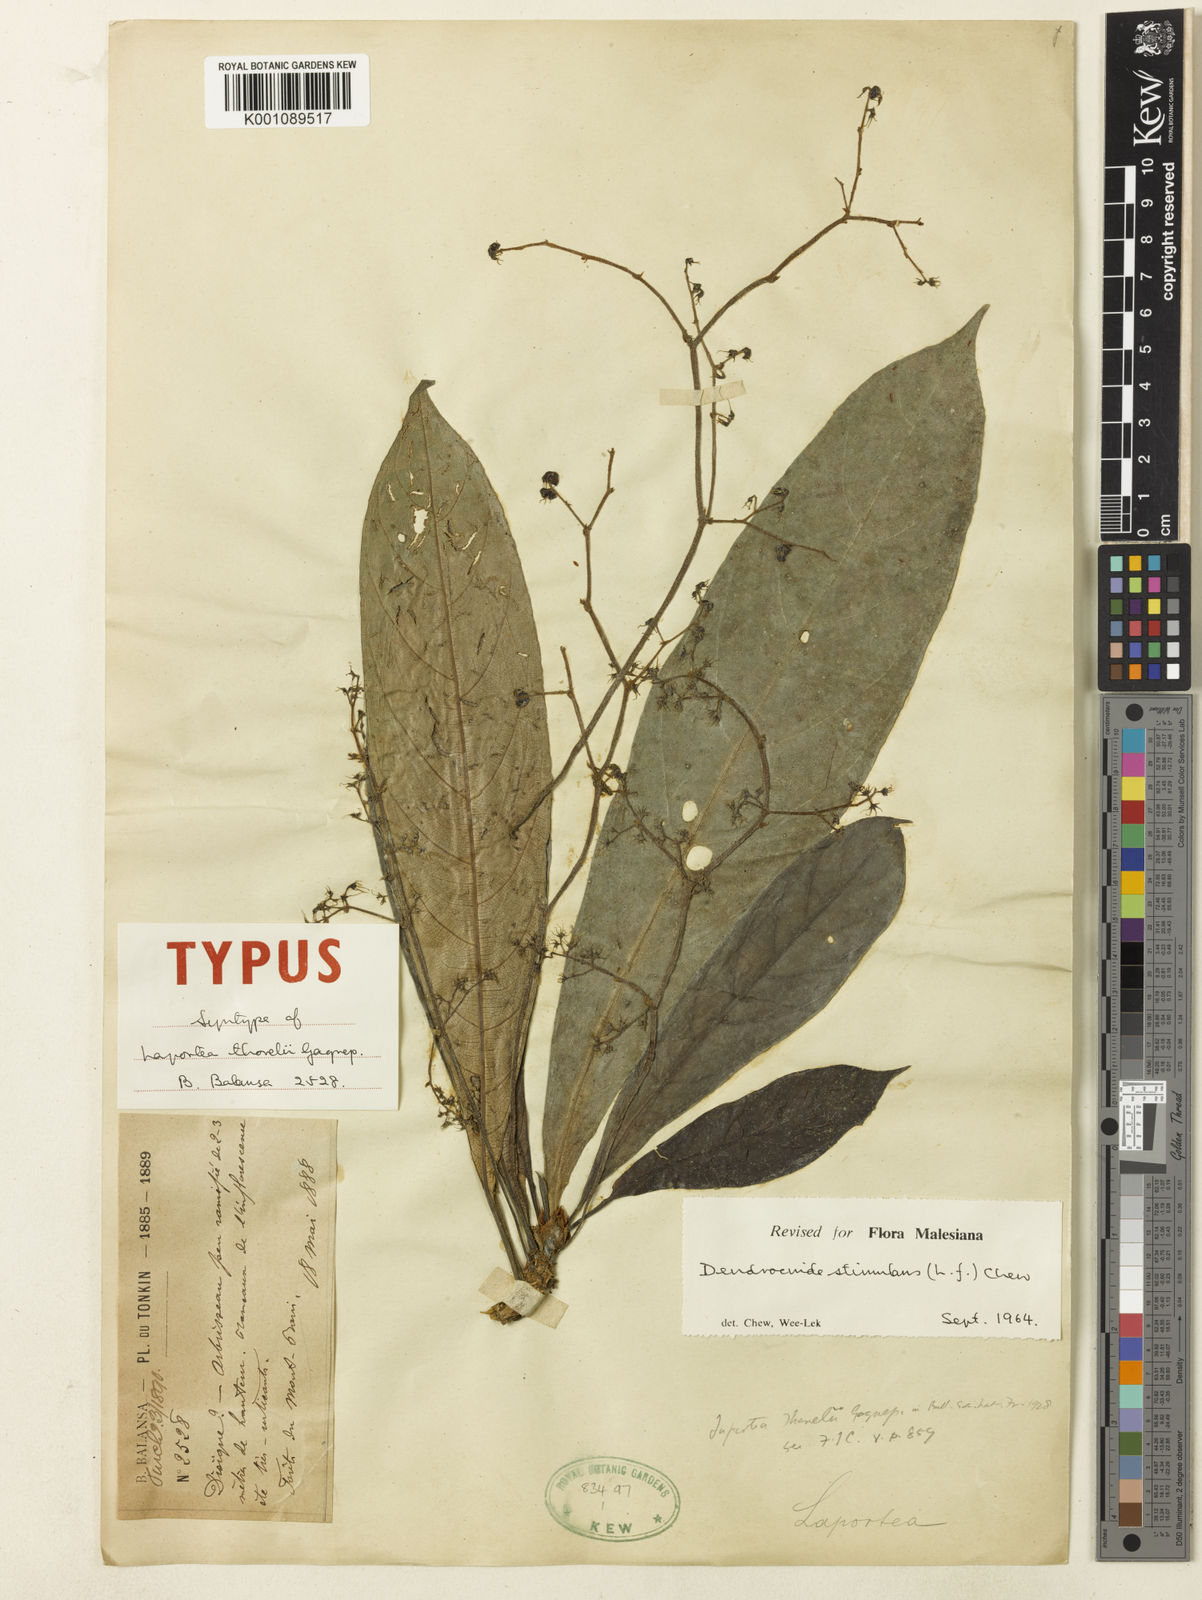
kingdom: Plantae
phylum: Tracheophyta
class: Magnoliopsida
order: Rosales
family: Urticaceae
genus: Dendrocnide
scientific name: Dendrocnide stimulans
